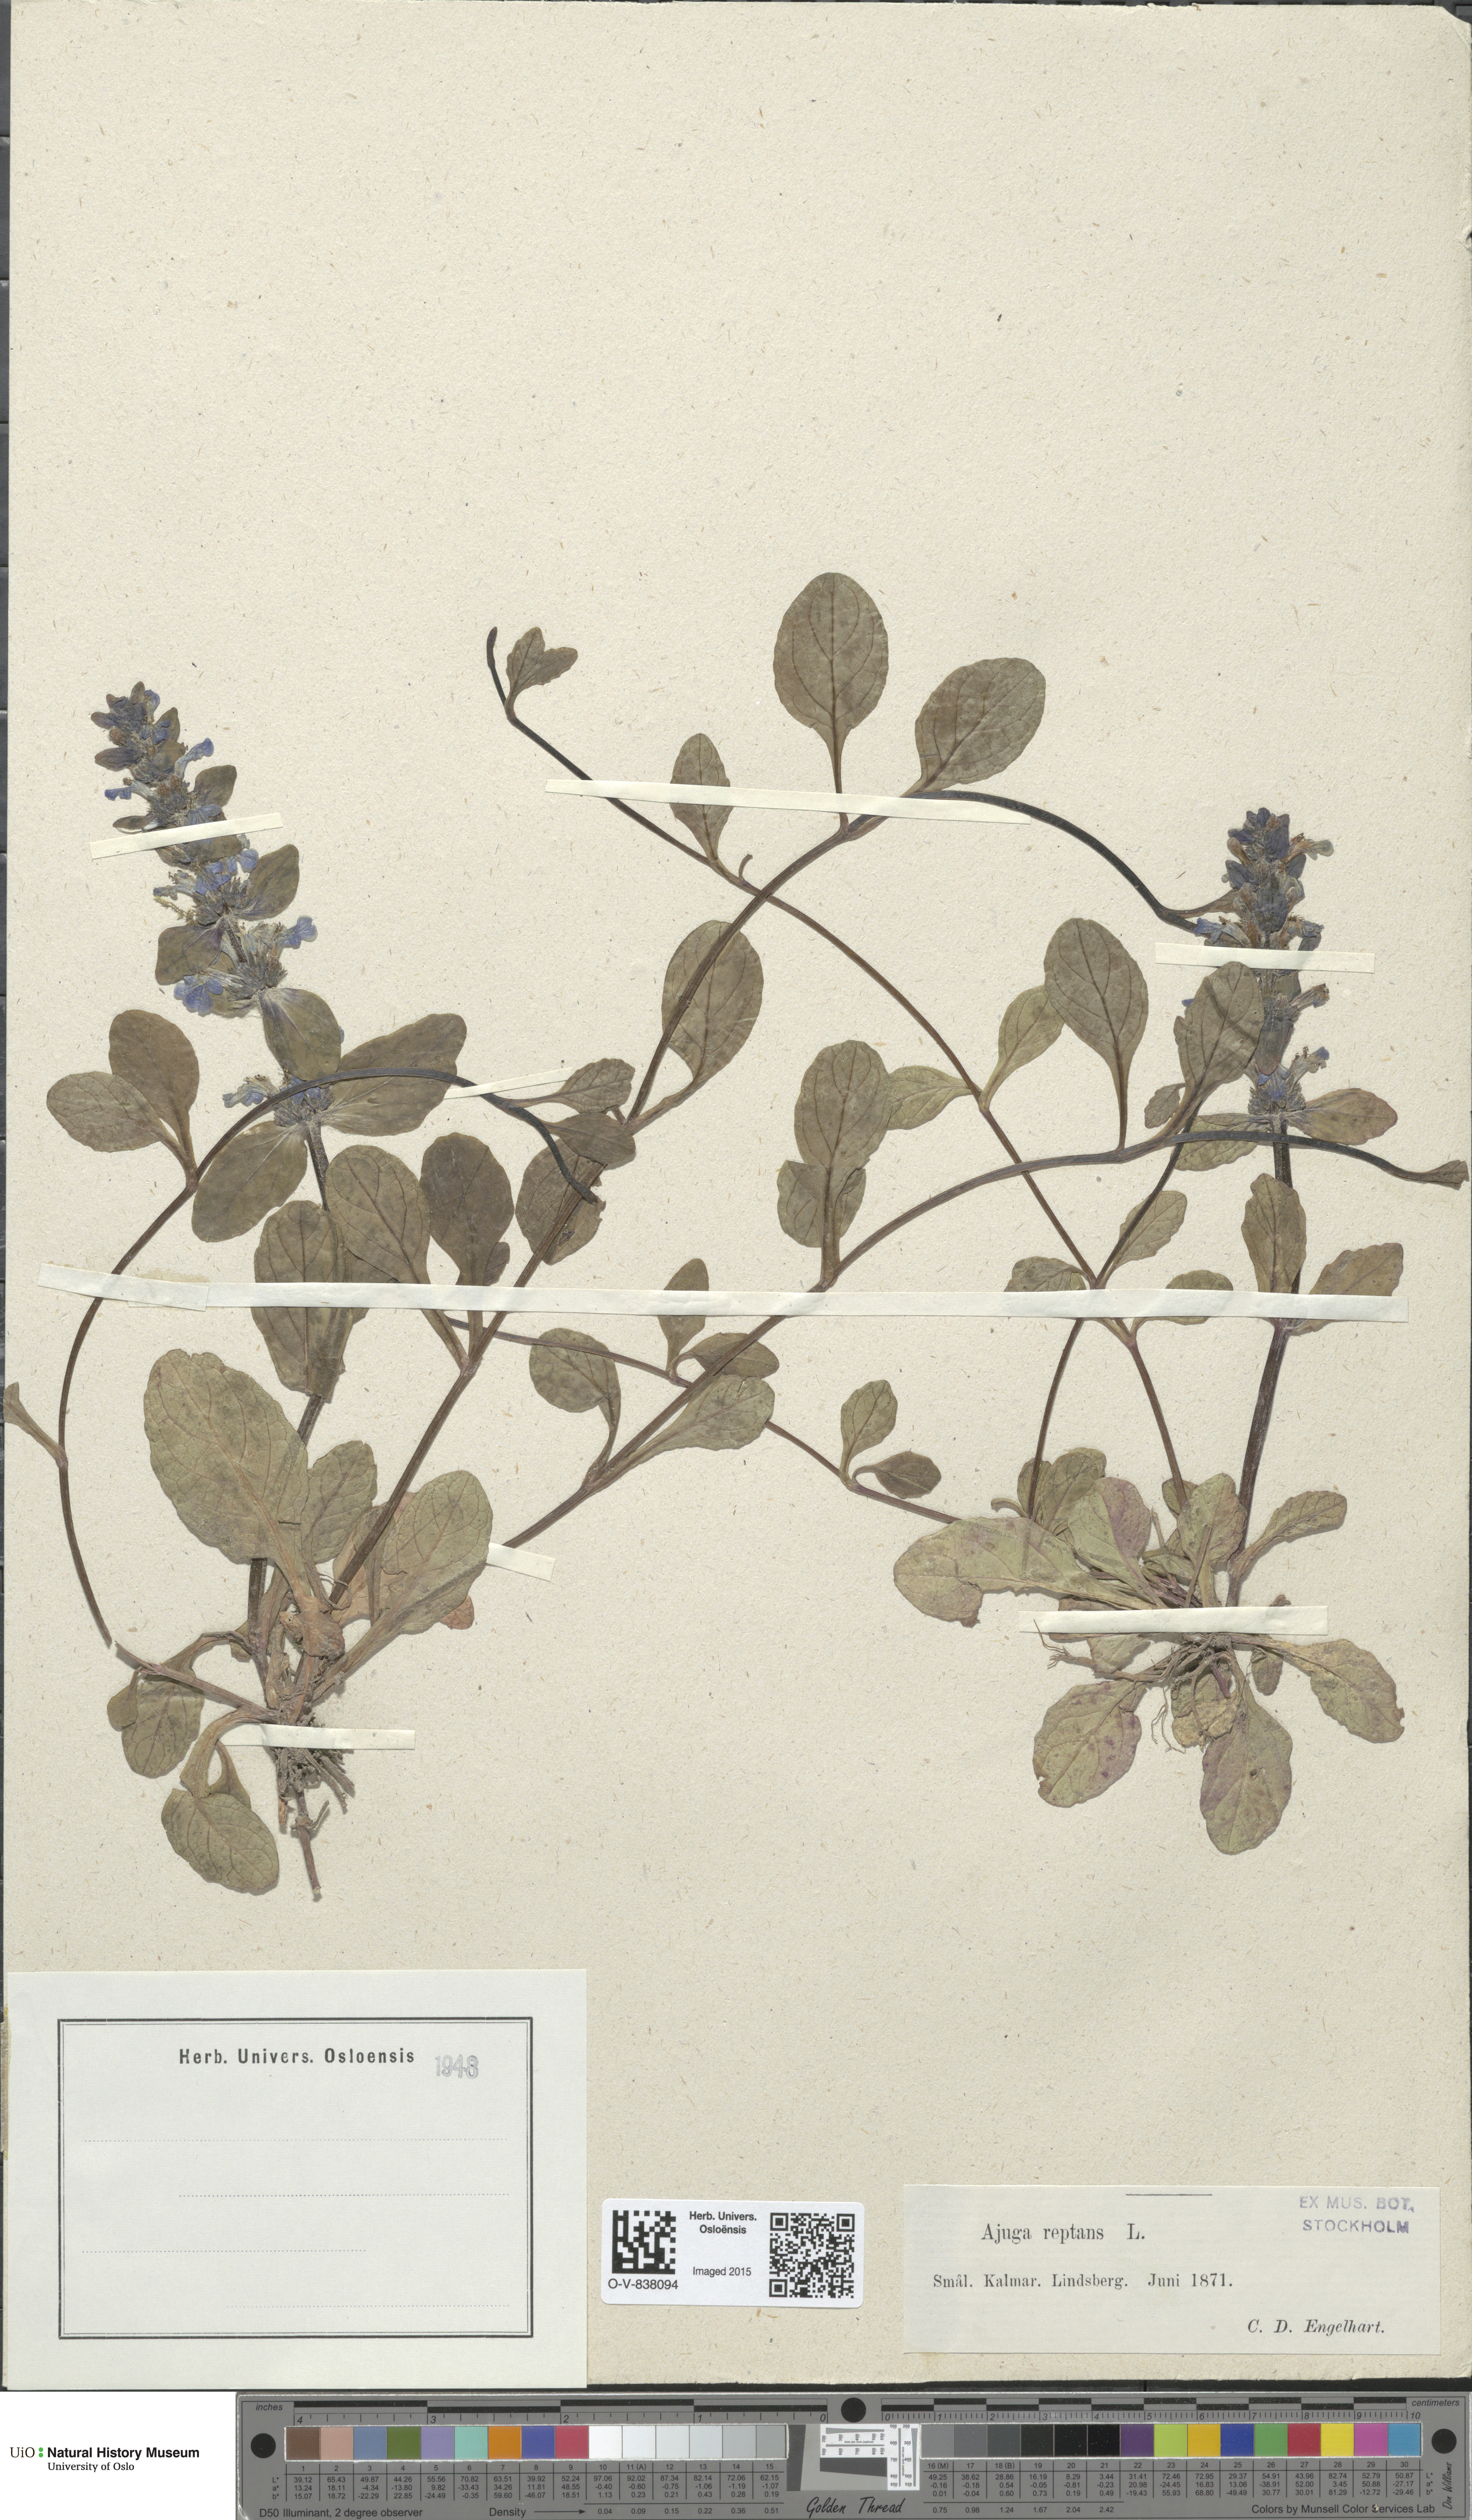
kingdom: Plantae
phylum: Tracheophyta
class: Magnoliopsida
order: Lamiales
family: Lamiaceae
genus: Ajuga
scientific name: Ajuga reptans
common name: Bugle
